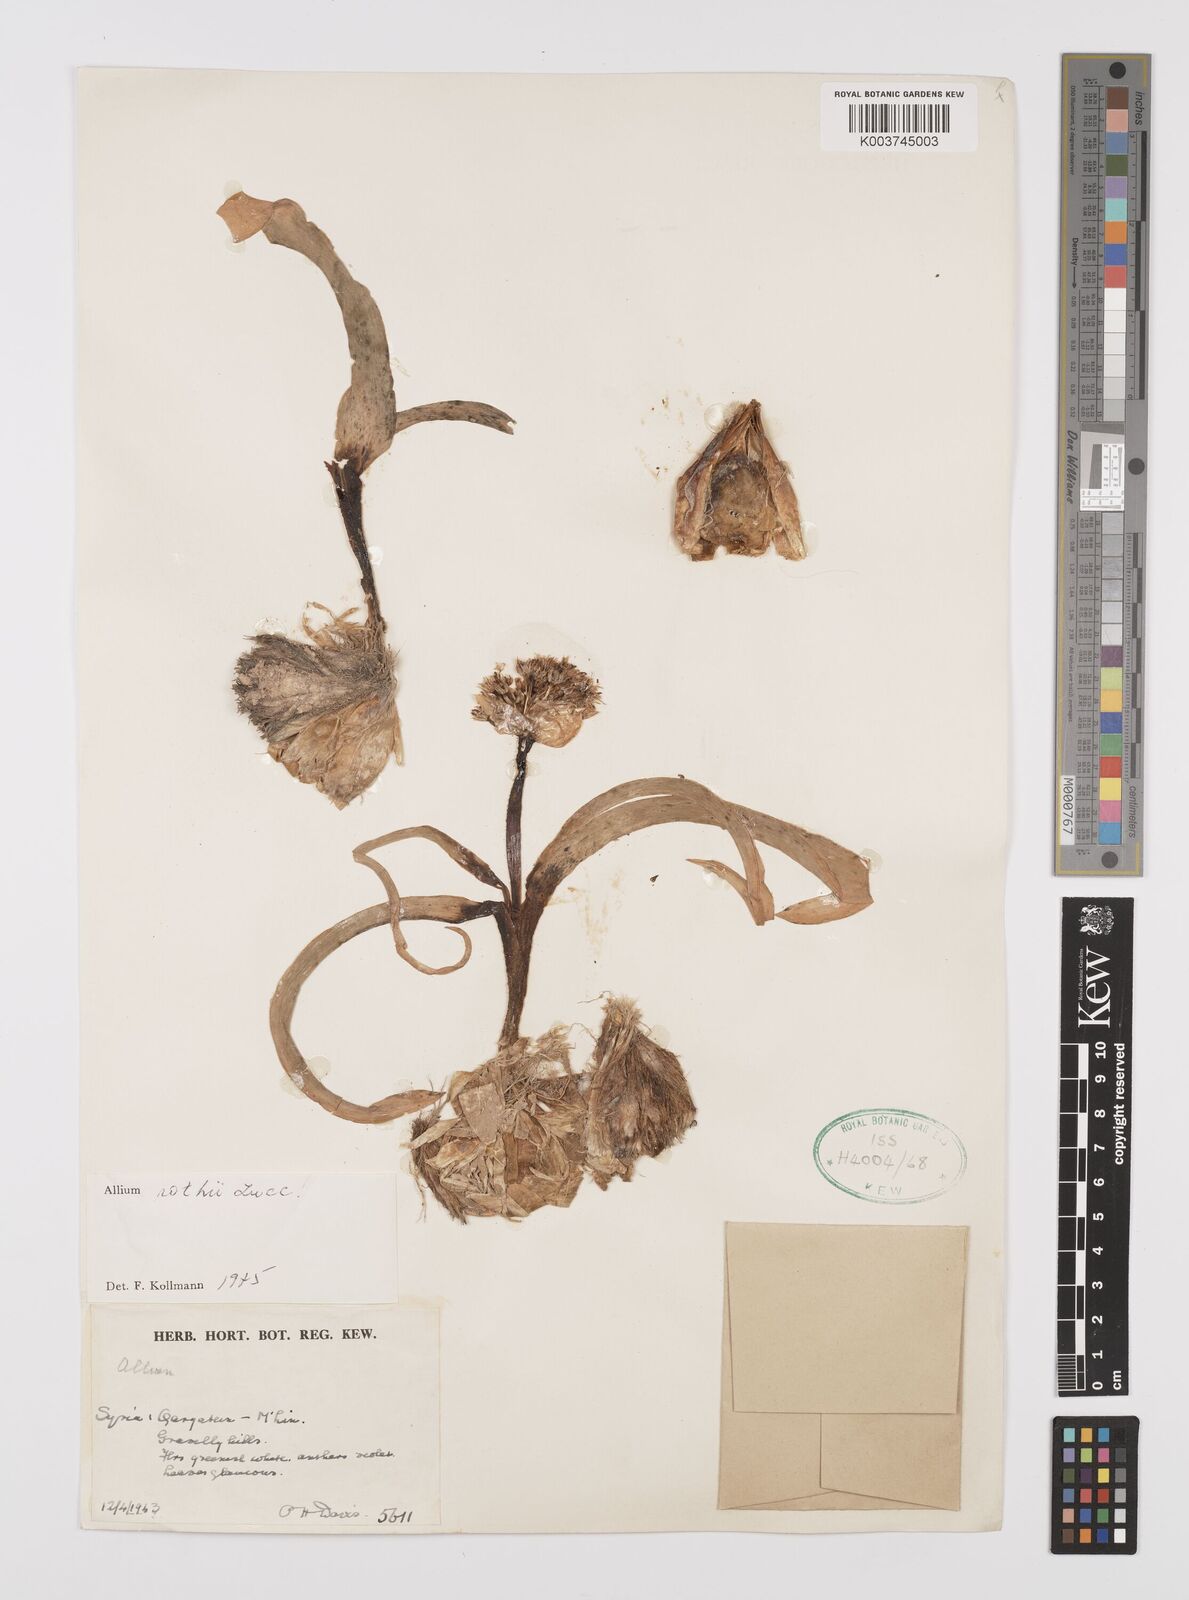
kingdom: Plantae
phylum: Tracheophyta
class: Liliopsida
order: Asparagales
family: Amaryllidaceae
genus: Allium
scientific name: Allium rothii
